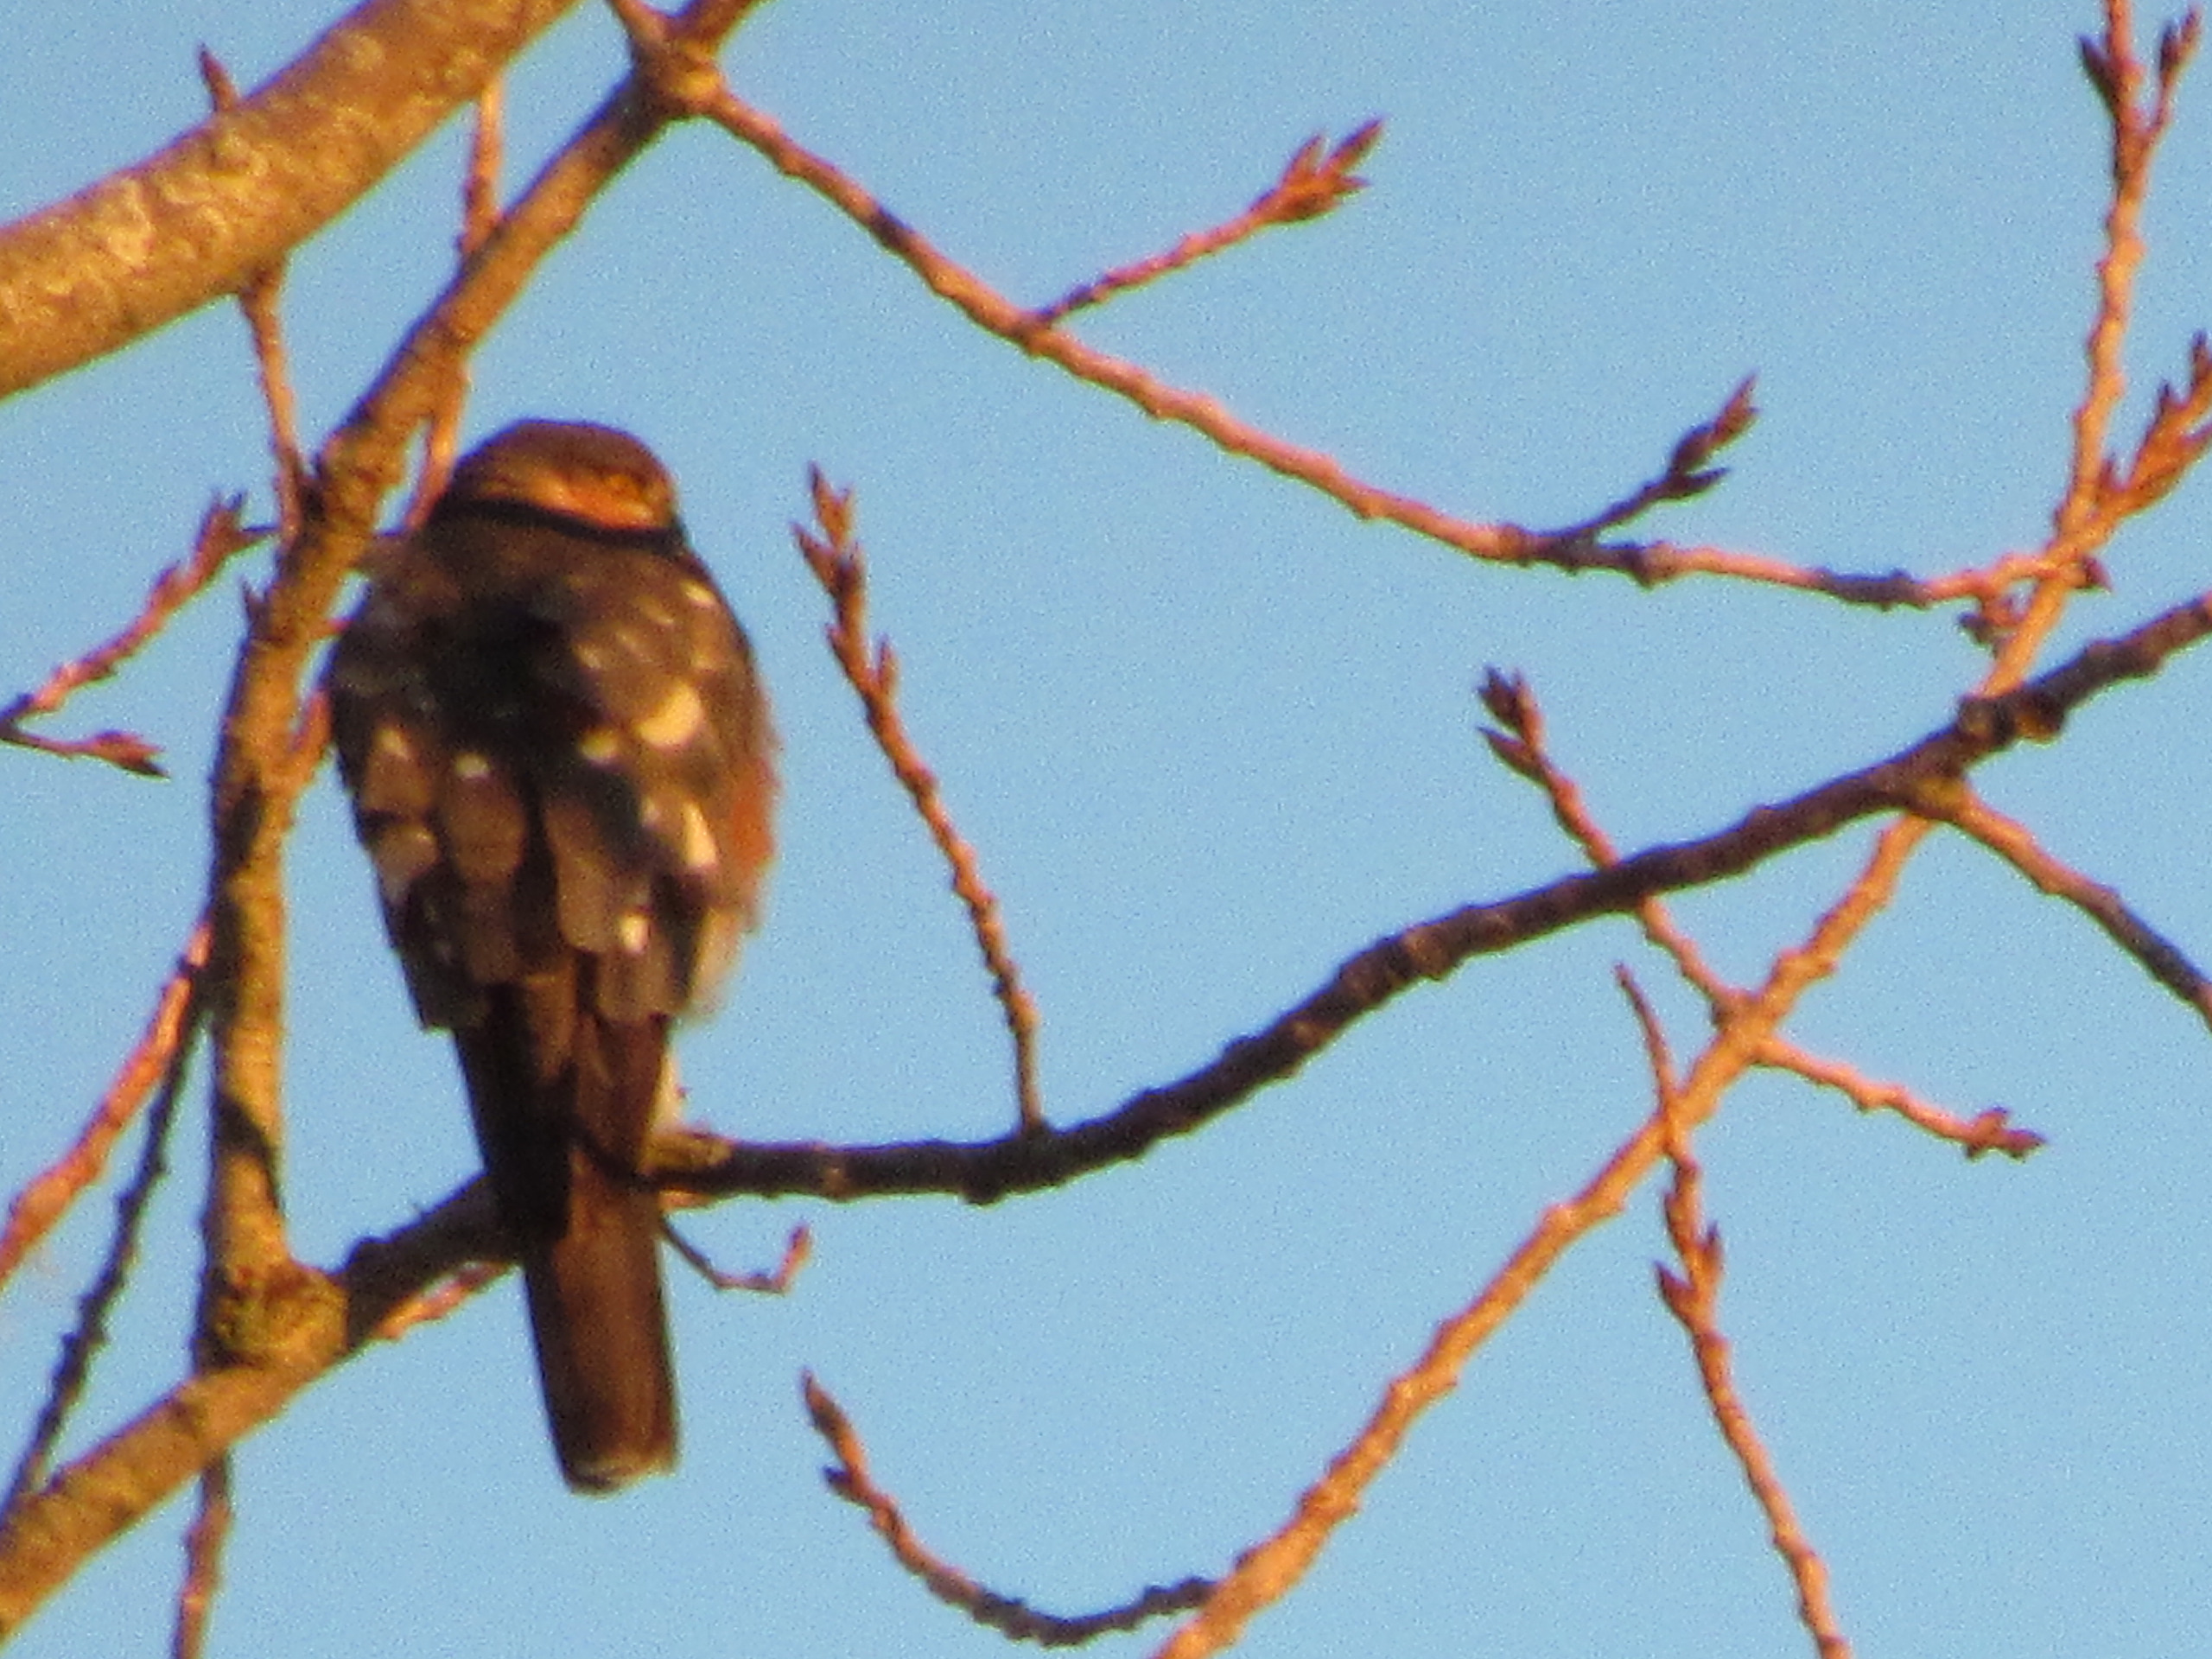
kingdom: Animalia
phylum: Chordata
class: Aves
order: Accipitriformes
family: Accipitridae
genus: Accipiter
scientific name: Accipiter nisus
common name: Spurvehøg
